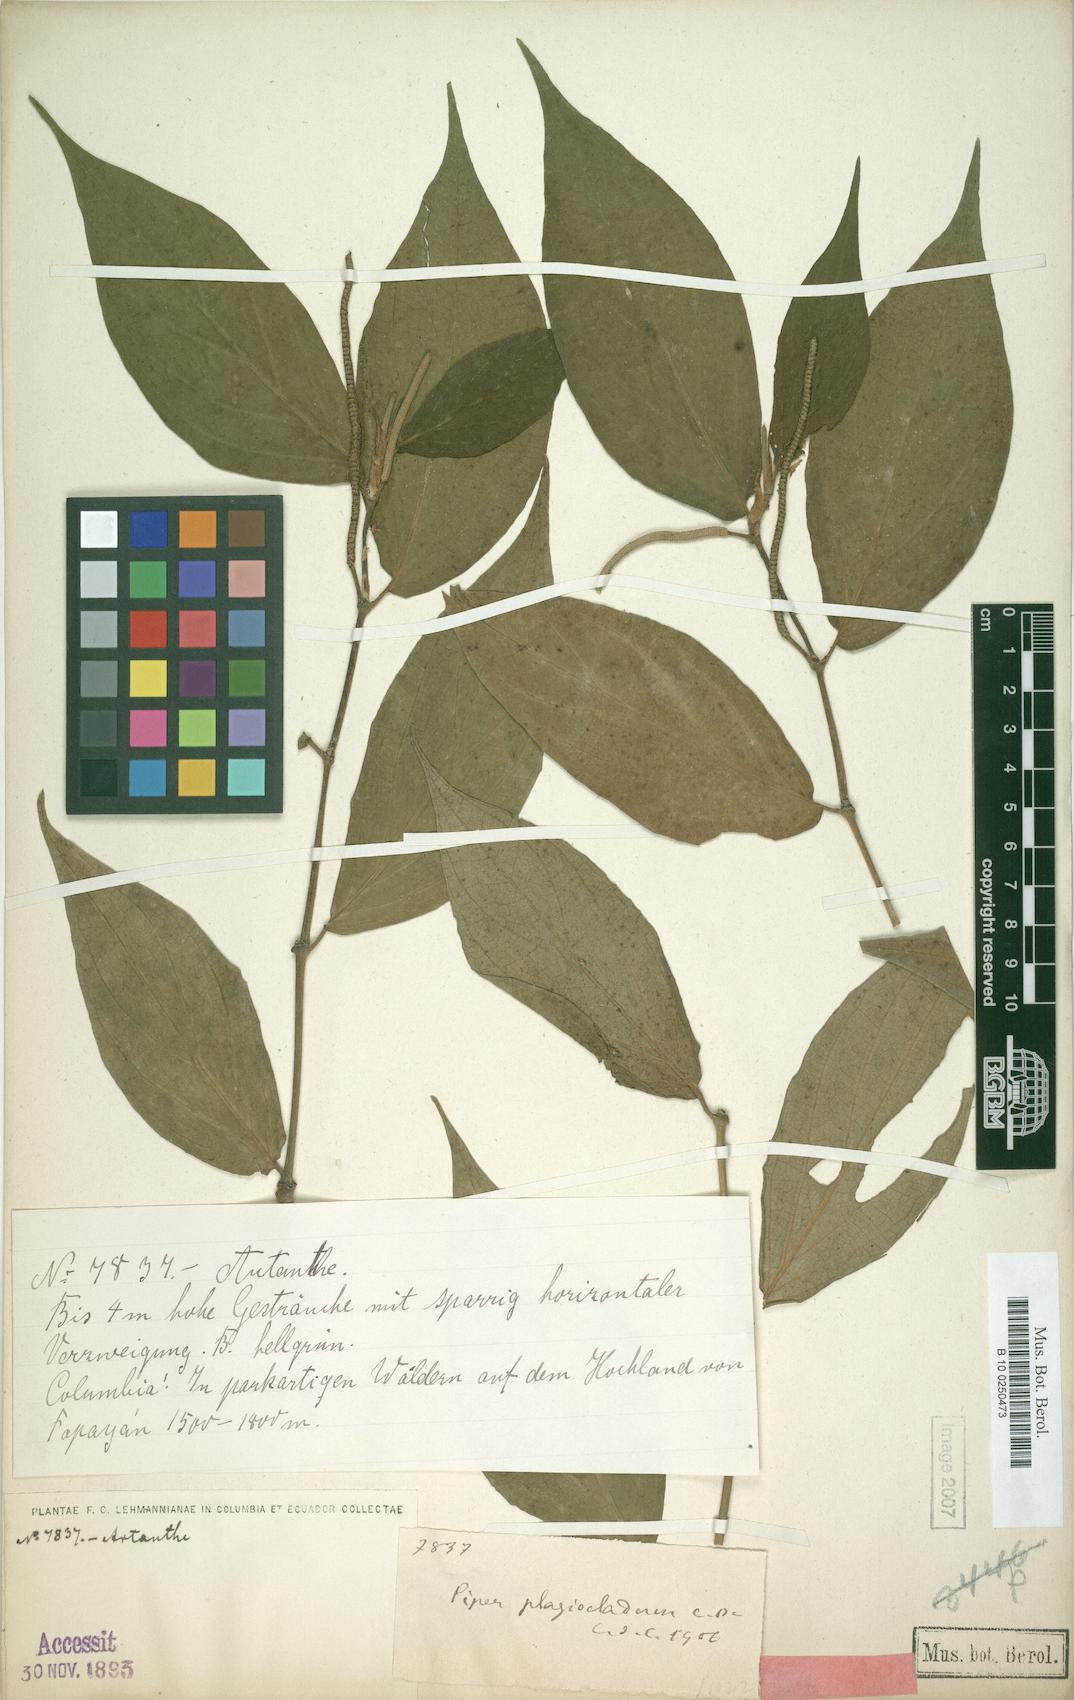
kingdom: Plantae
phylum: Tracheophyta
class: Magnoliopsida
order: Piperales
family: Piperaceae
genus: Piper
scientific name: Piper popayanense
